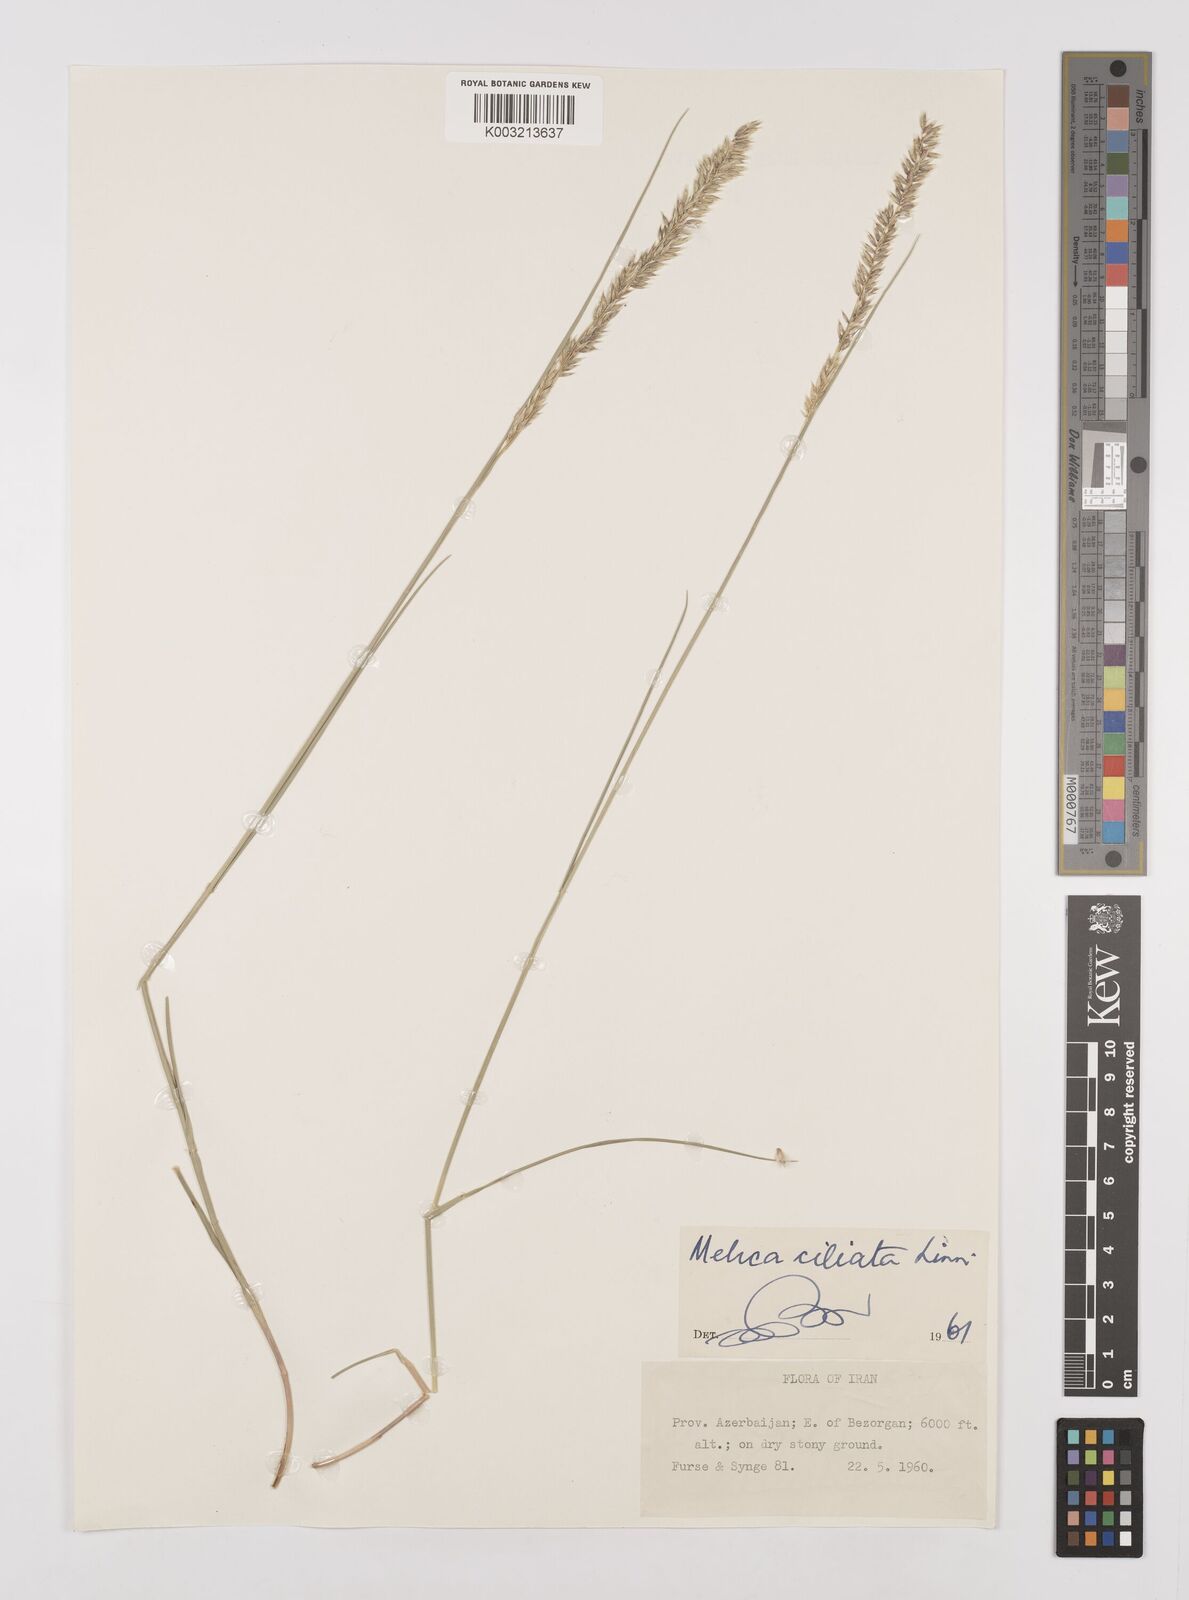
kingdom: Plantae
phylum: Tracheophyta
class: Liliopsida
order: Poales
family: Poaceae
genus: Melica
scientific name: Melica ciliata
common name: Hairy melicgrass
